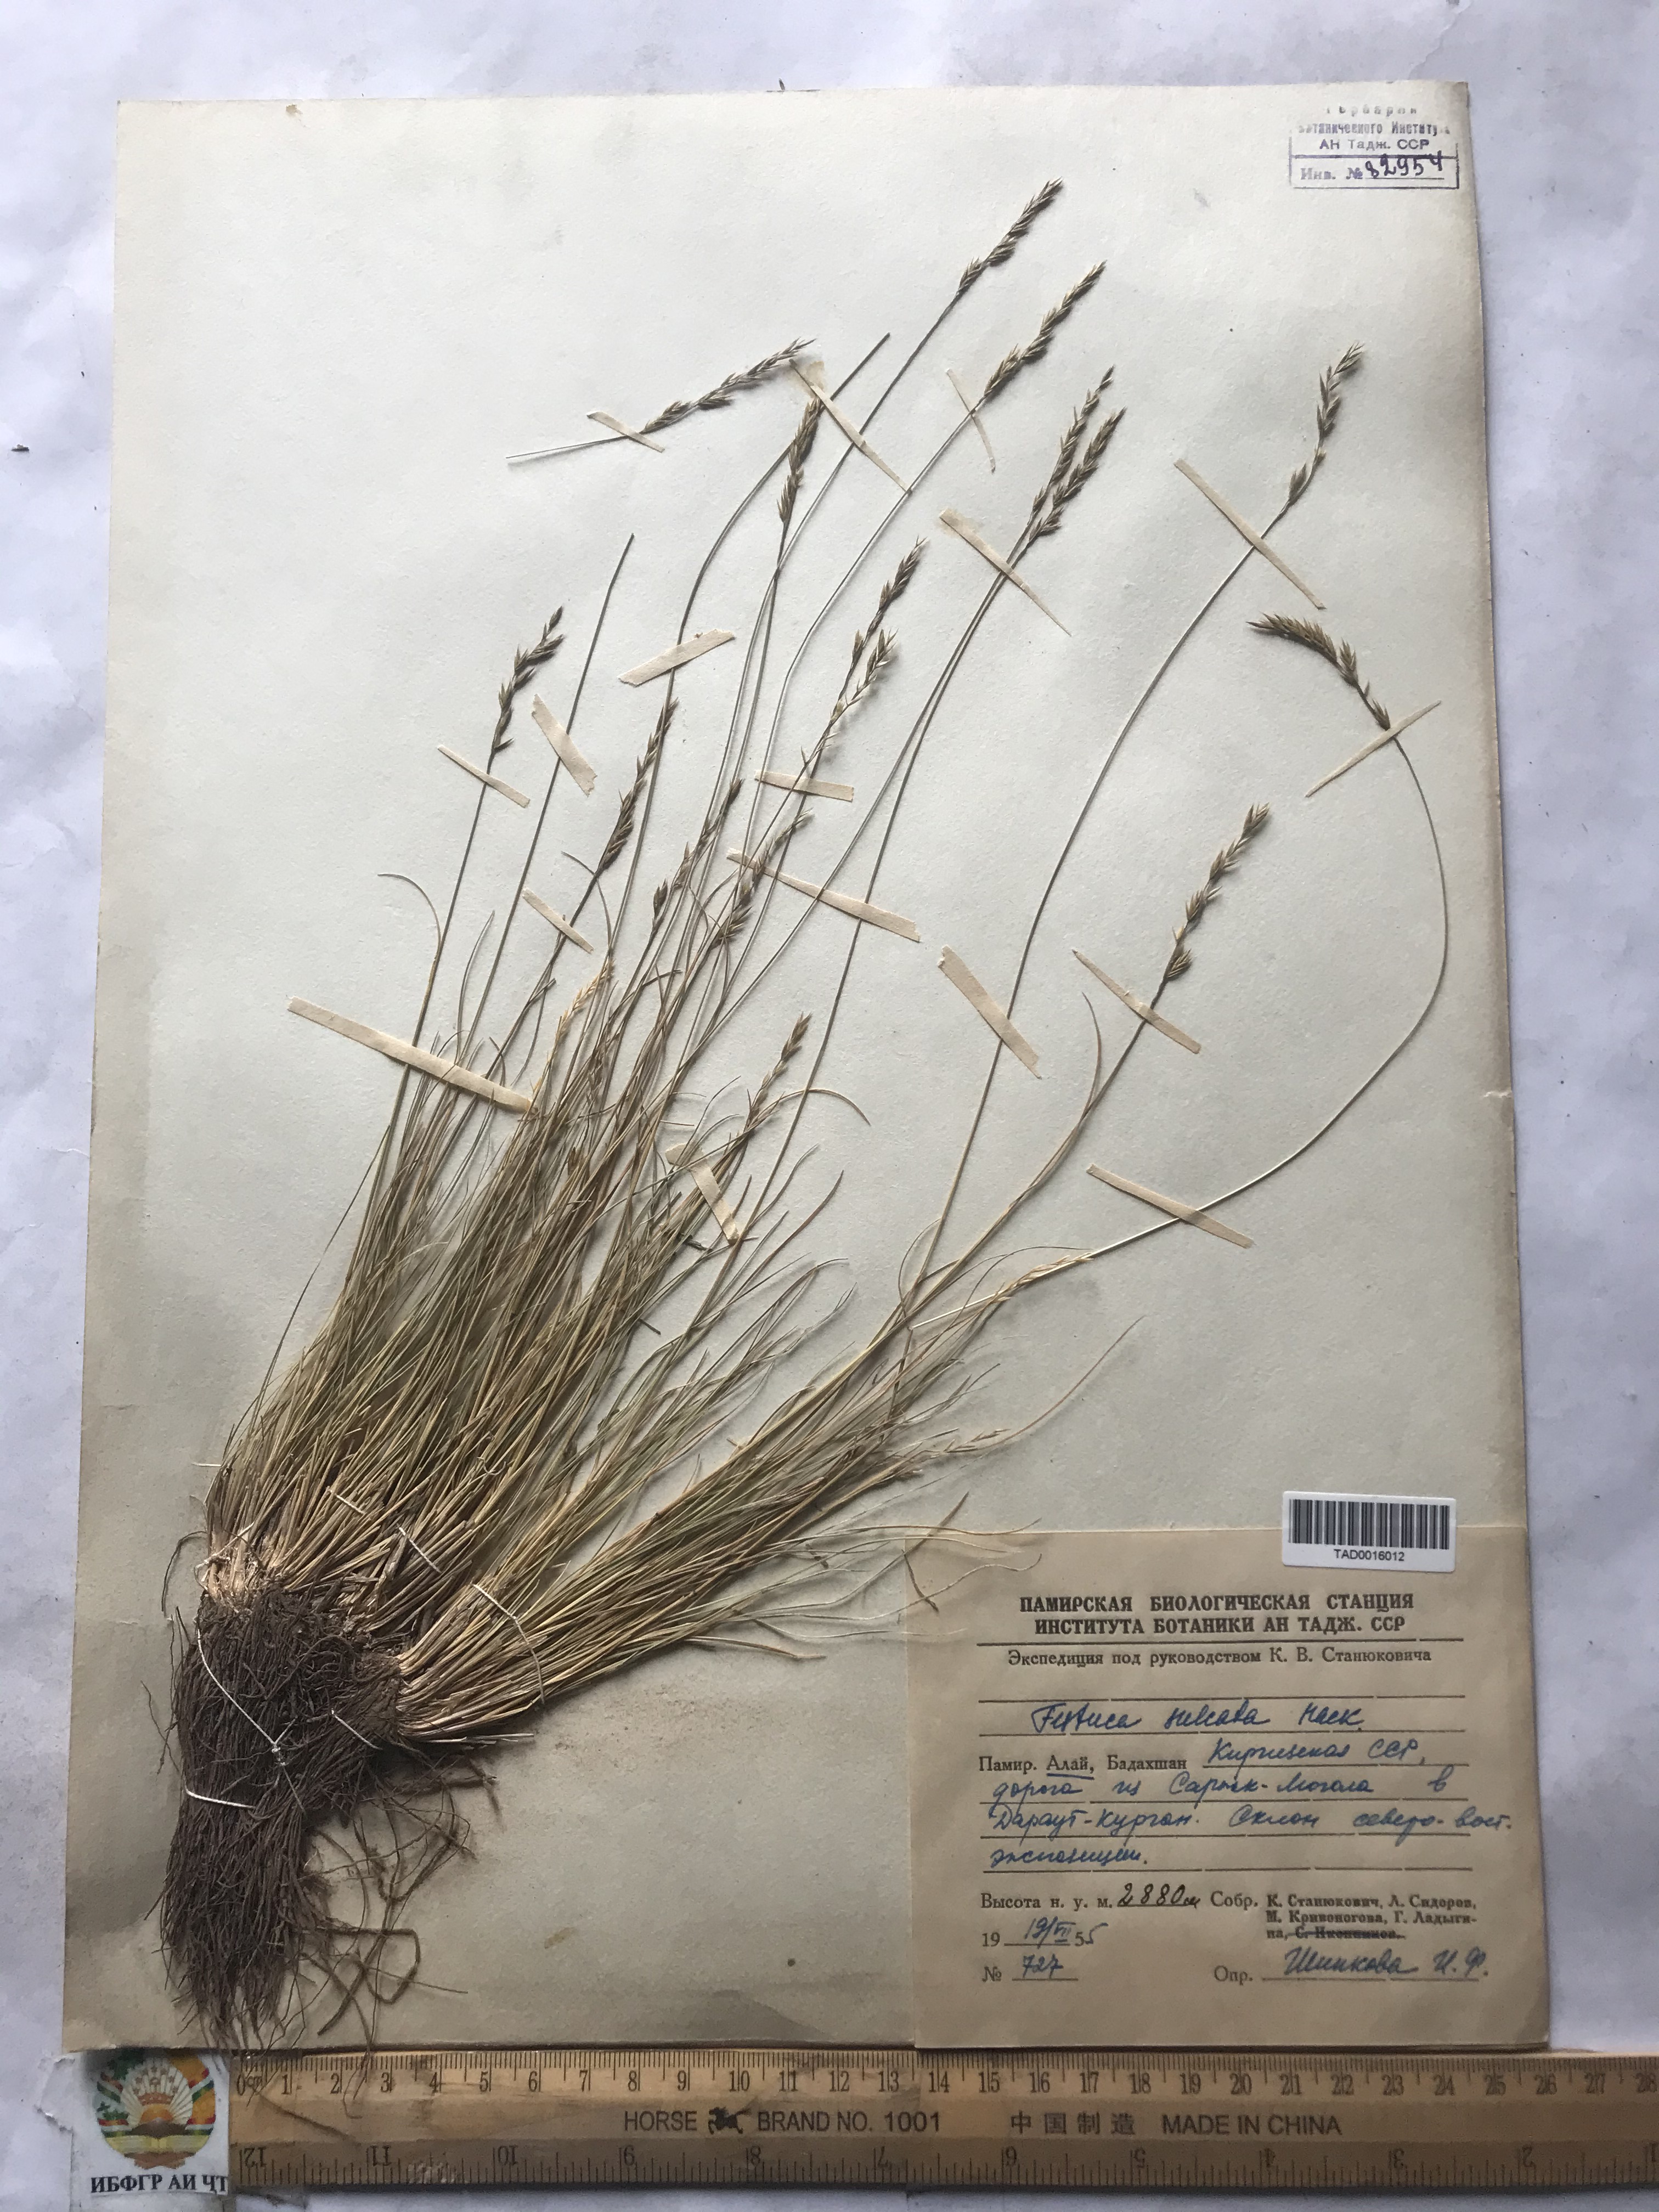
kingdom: Plantae
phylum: Tracheophyta
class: Liliopsida
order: Poales
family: Poaceae
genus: Festuca
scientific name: Festuca sulcata
